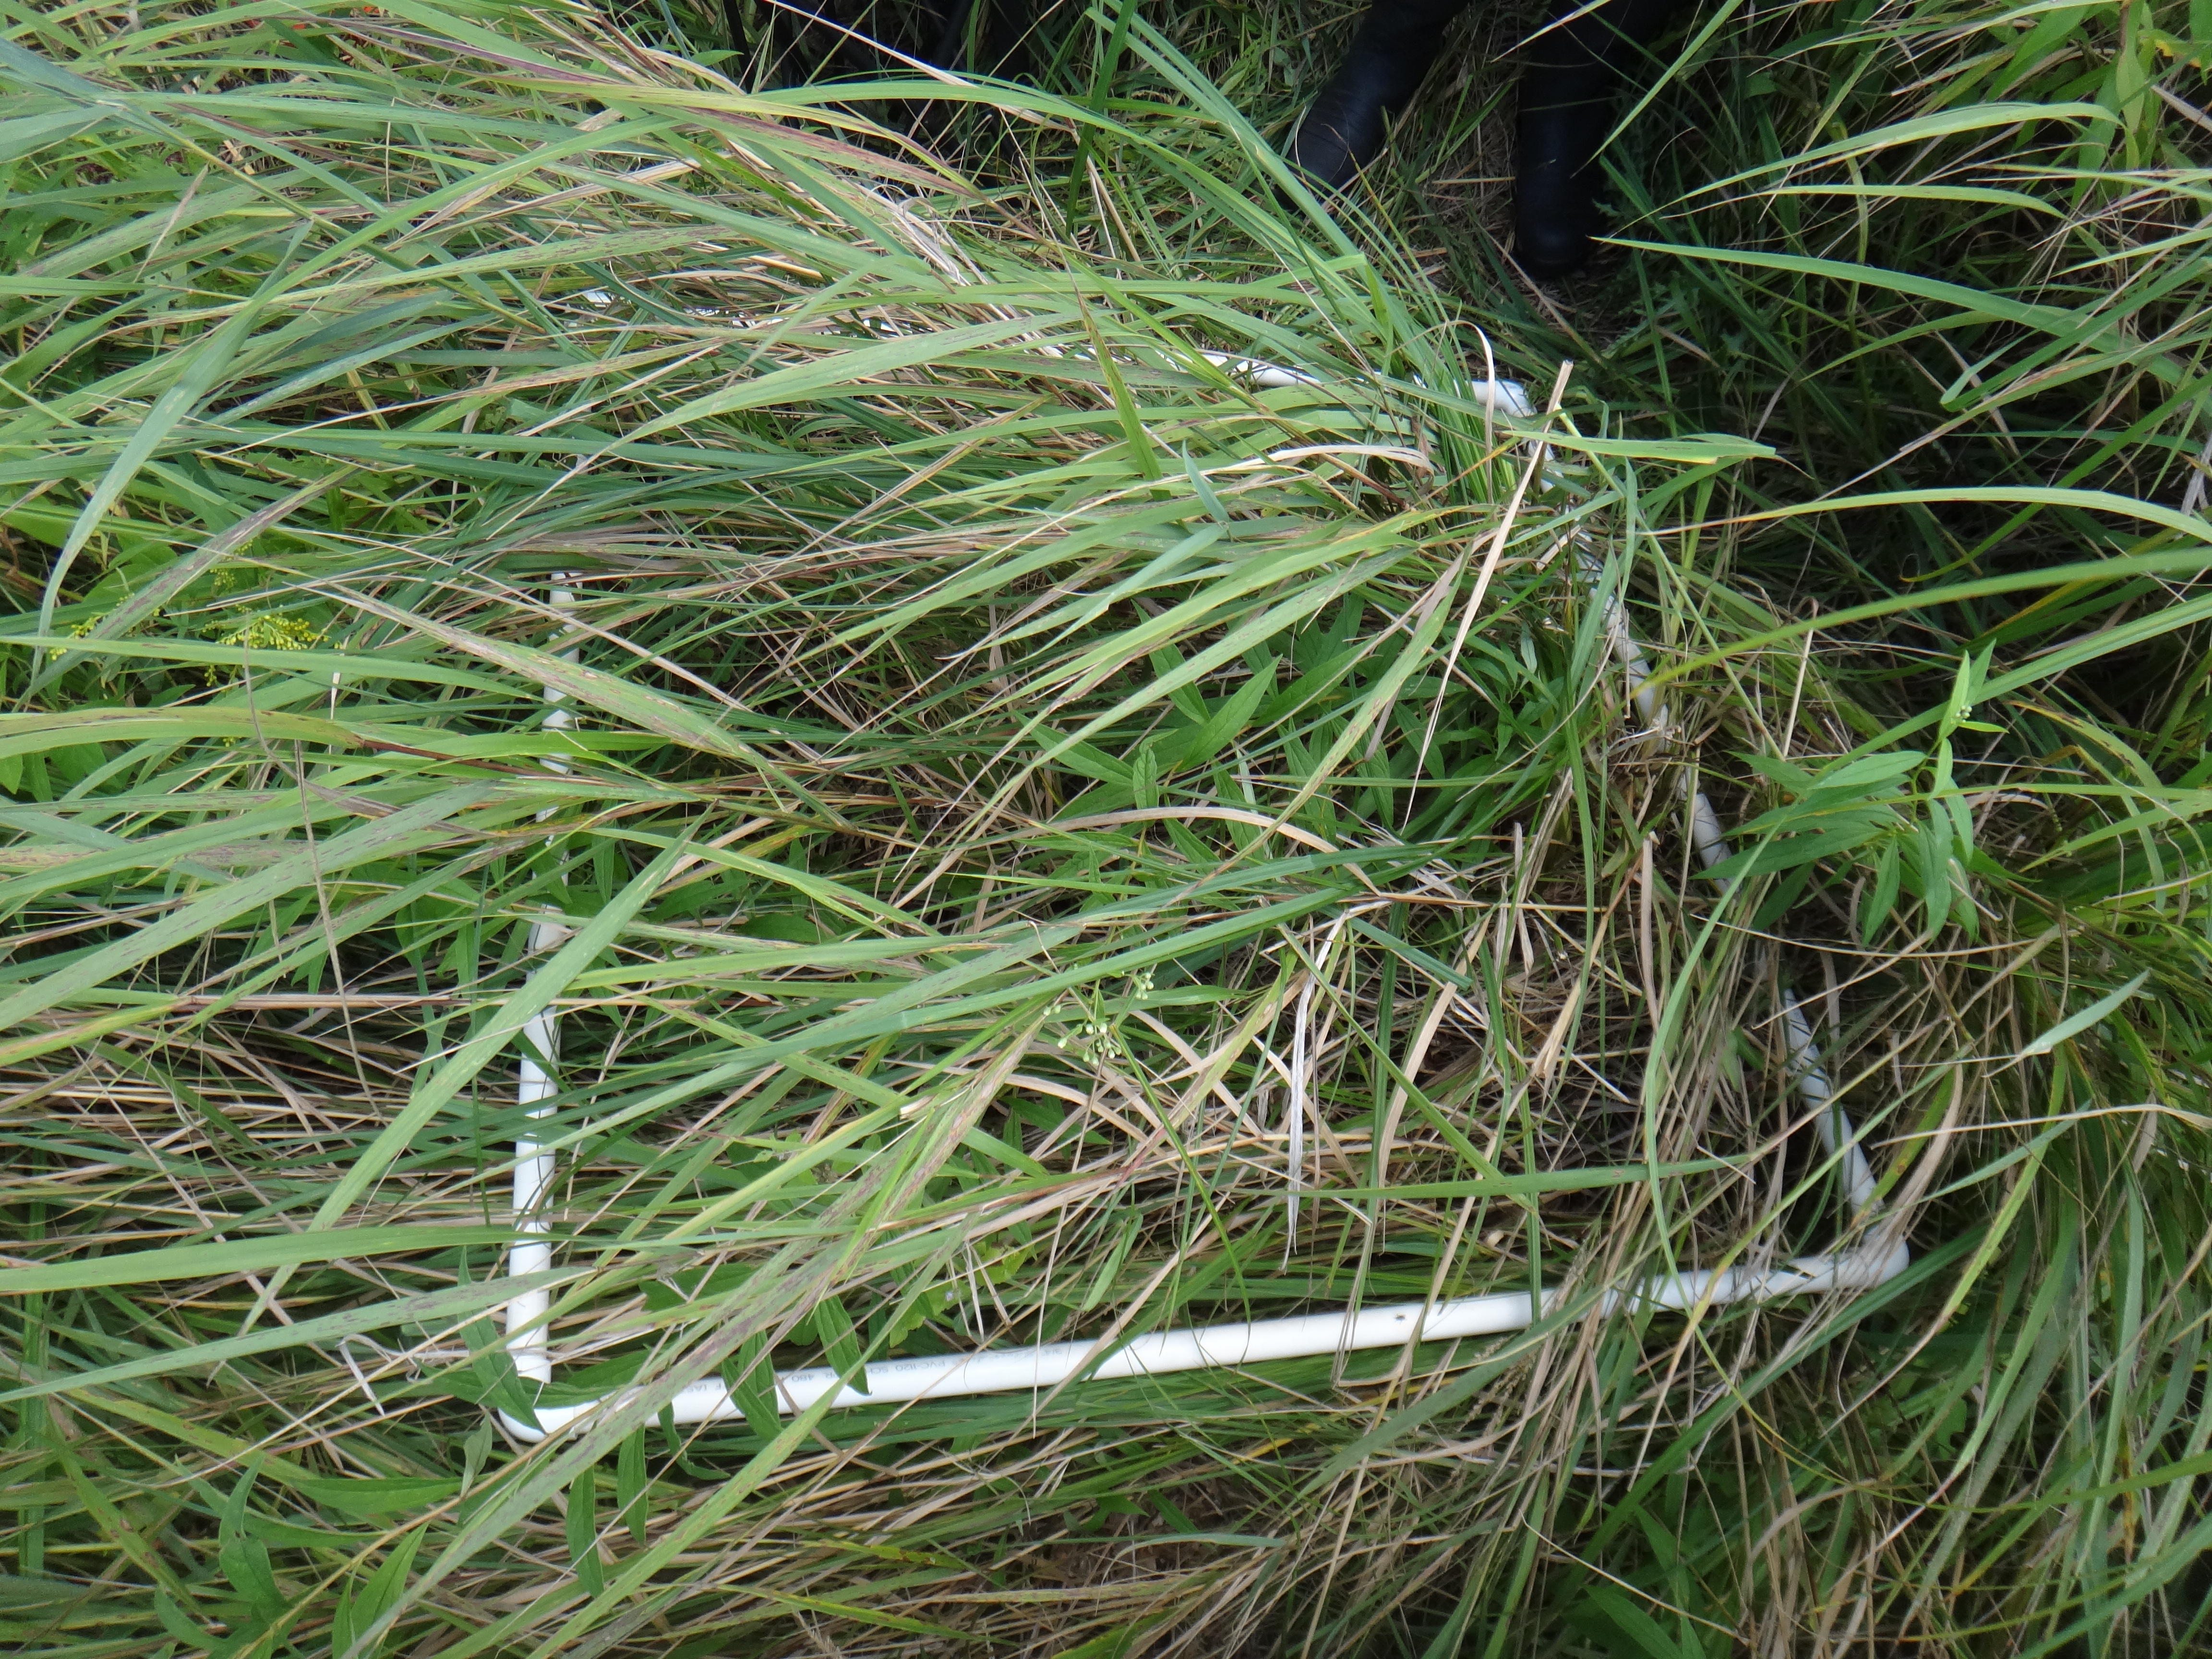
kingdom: Plantae
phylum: Tracheophyta
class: Liliopsida
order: Poales
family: Poaceae
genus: Agrostis
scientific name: Agrostis gigantea
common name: Black bent
